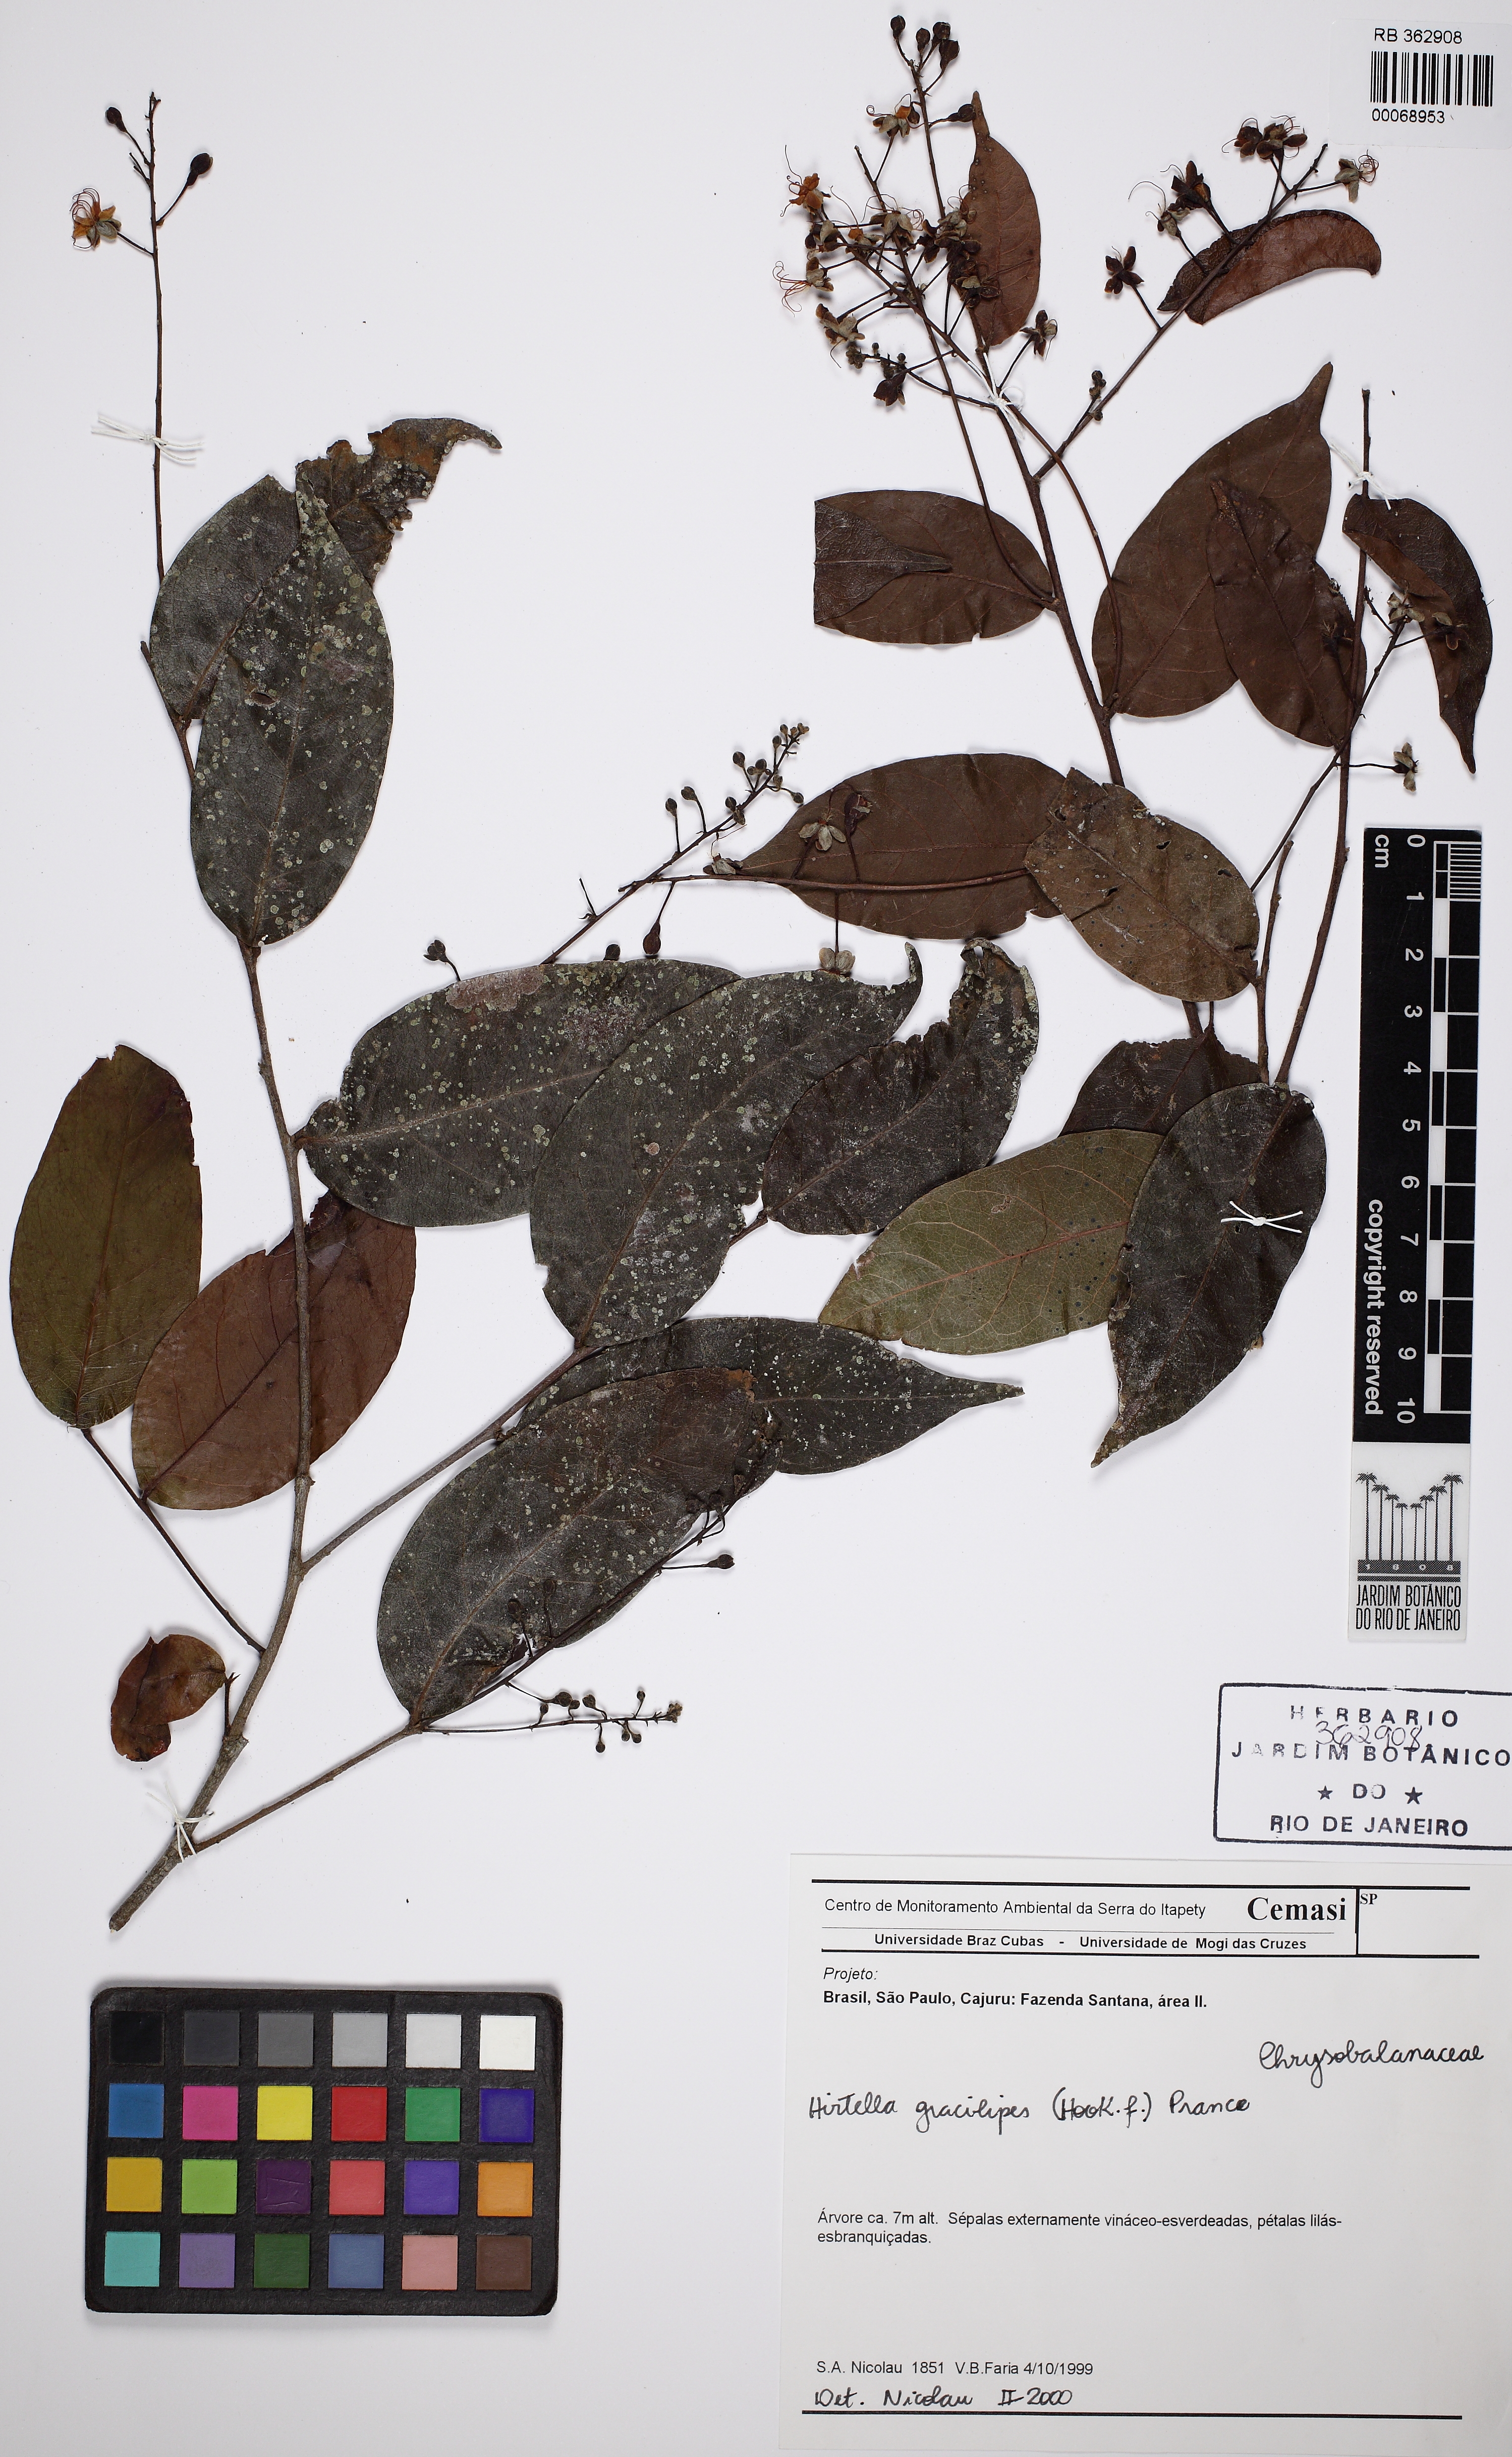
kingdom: Plantae
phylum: Tracheophyta
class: Magnoliopsida
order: Malpighiales
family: Chrysobalanaceae
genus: Hirtella
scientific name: Hirtella gracilipes
